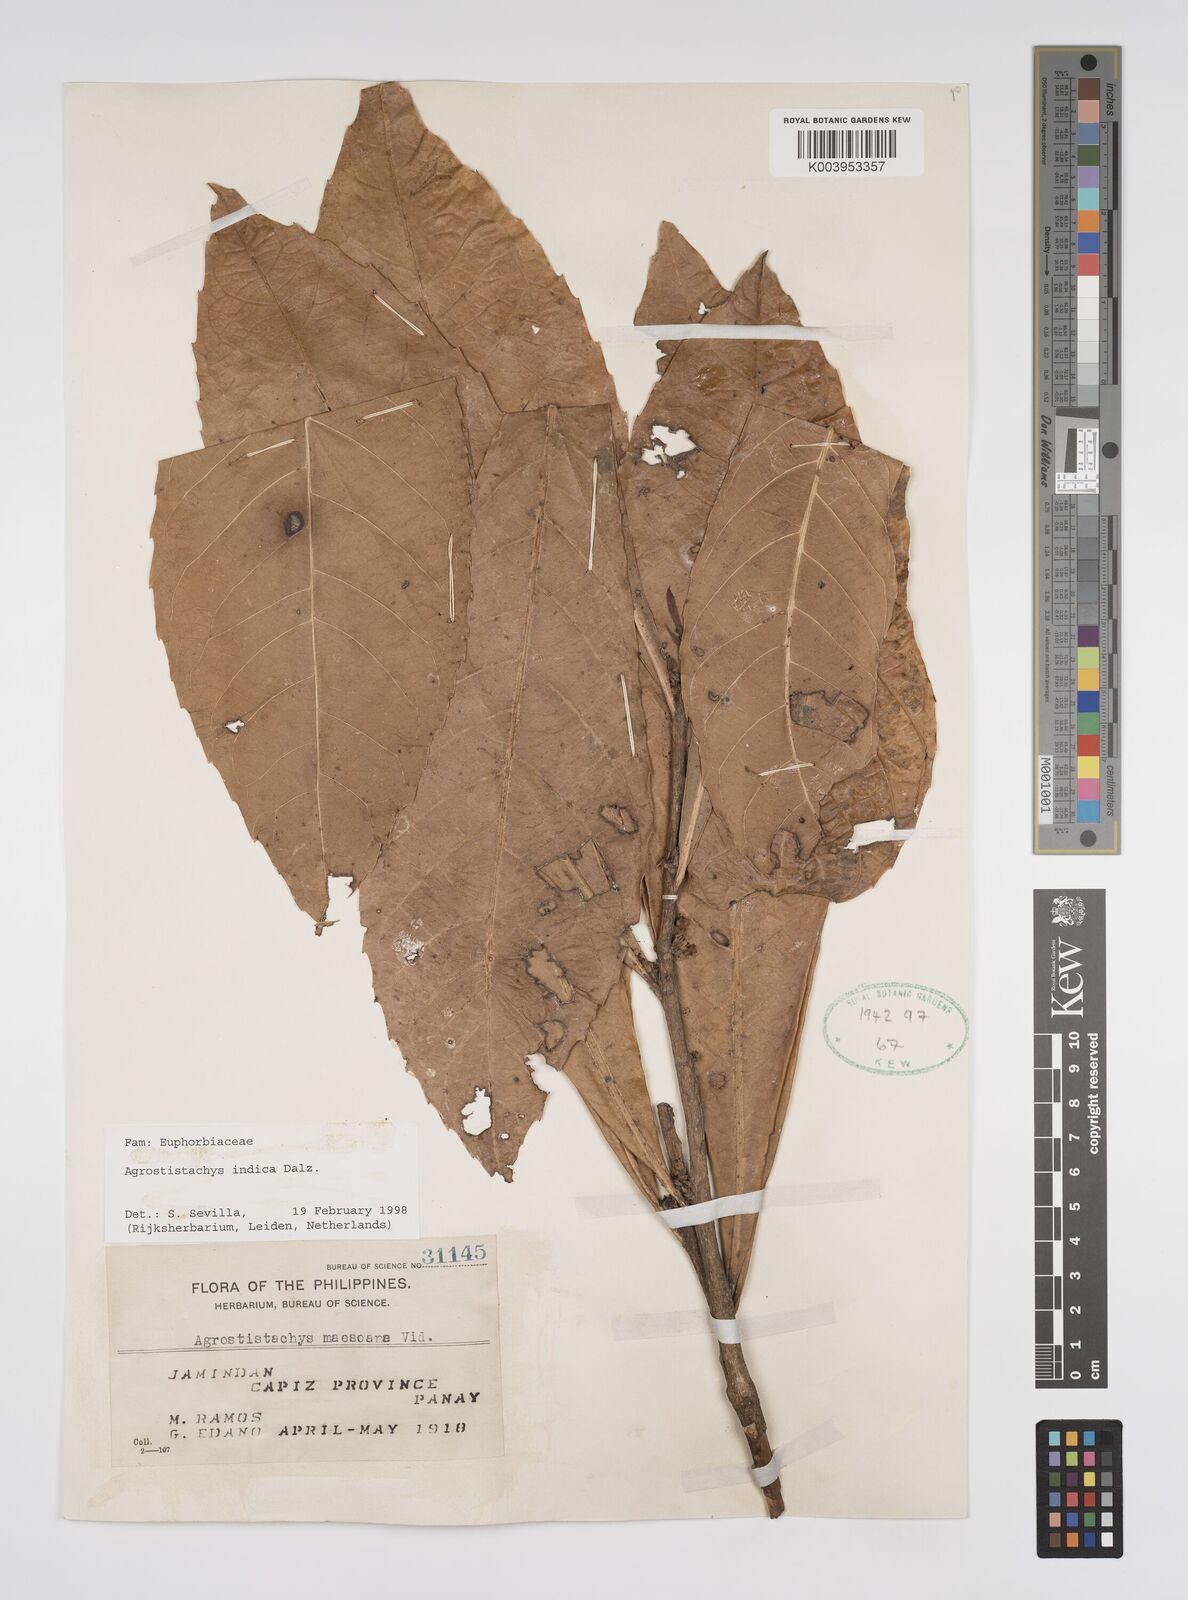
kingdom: Plantae
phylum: Tracheophyta
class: Magnoliopsida
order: Malpighiales
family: Euphorbiaceae
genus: Agrostistachys
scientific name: Agrostistachys indica
